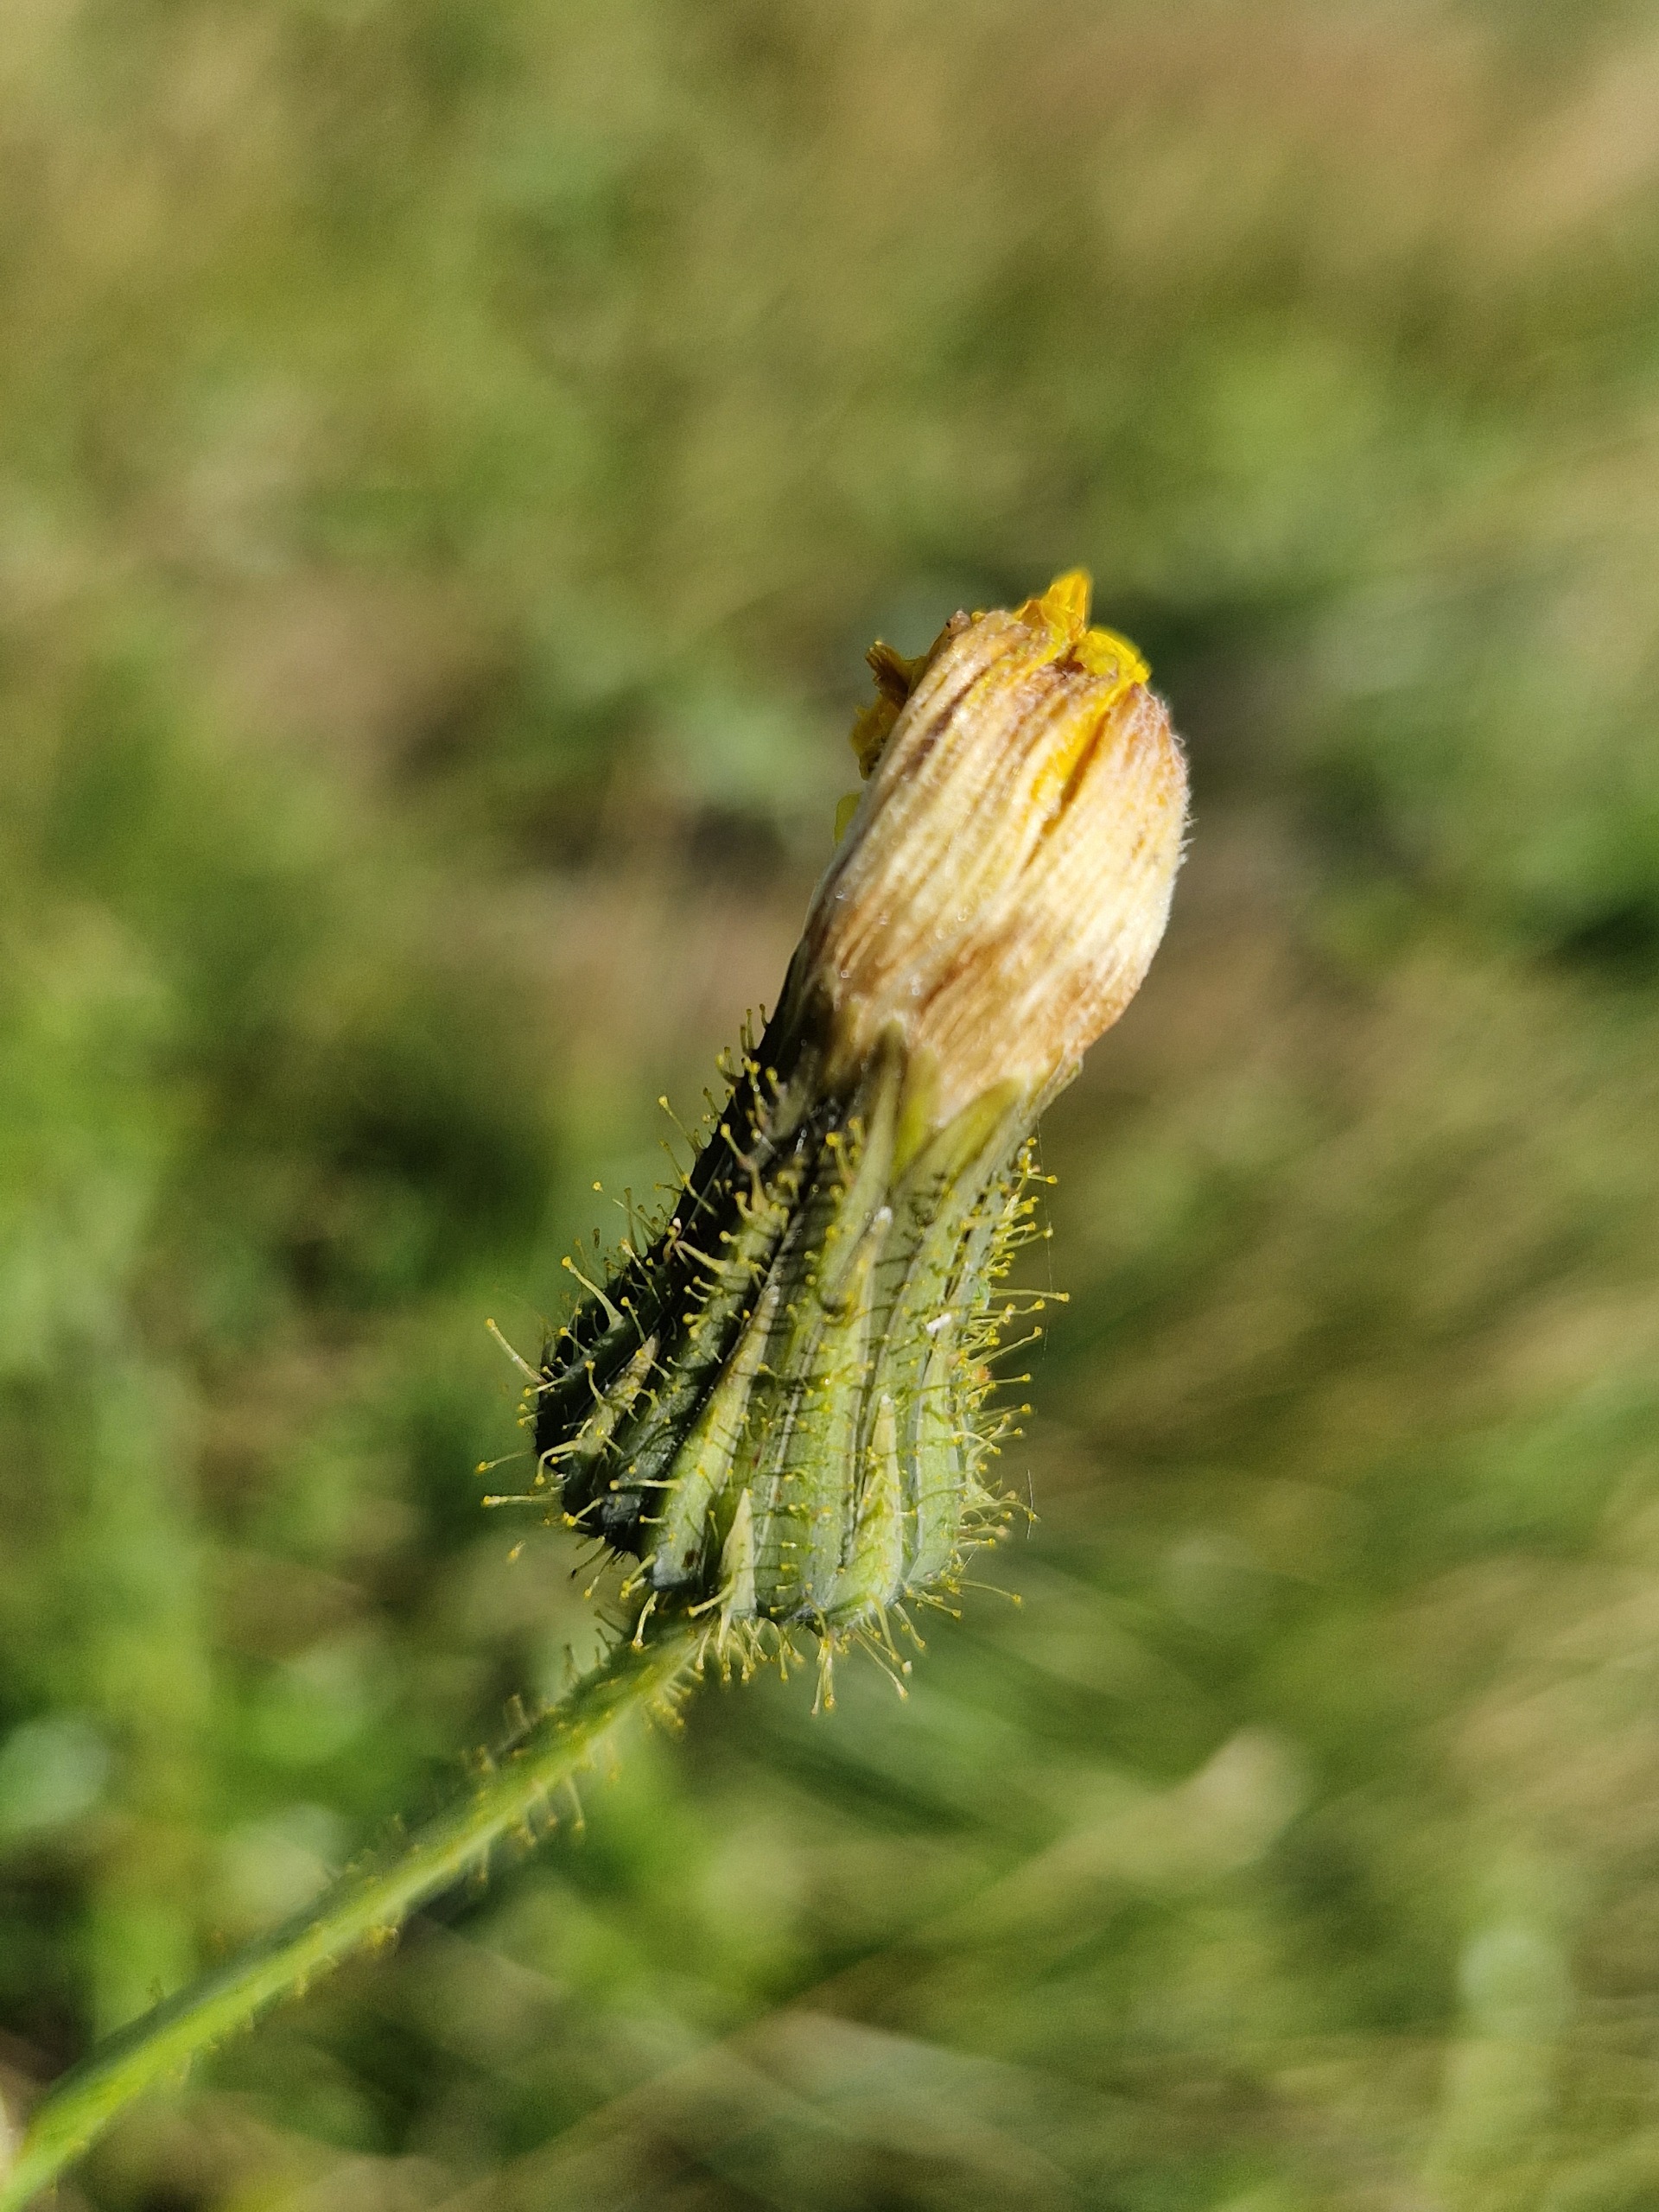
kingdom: Plantae
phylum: Tracheophyta
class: Magnoliopsida
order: Asterales
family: Asteraceae
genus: Sonchus
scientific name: Sonchus arvensis
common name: Ager-svinemælk
